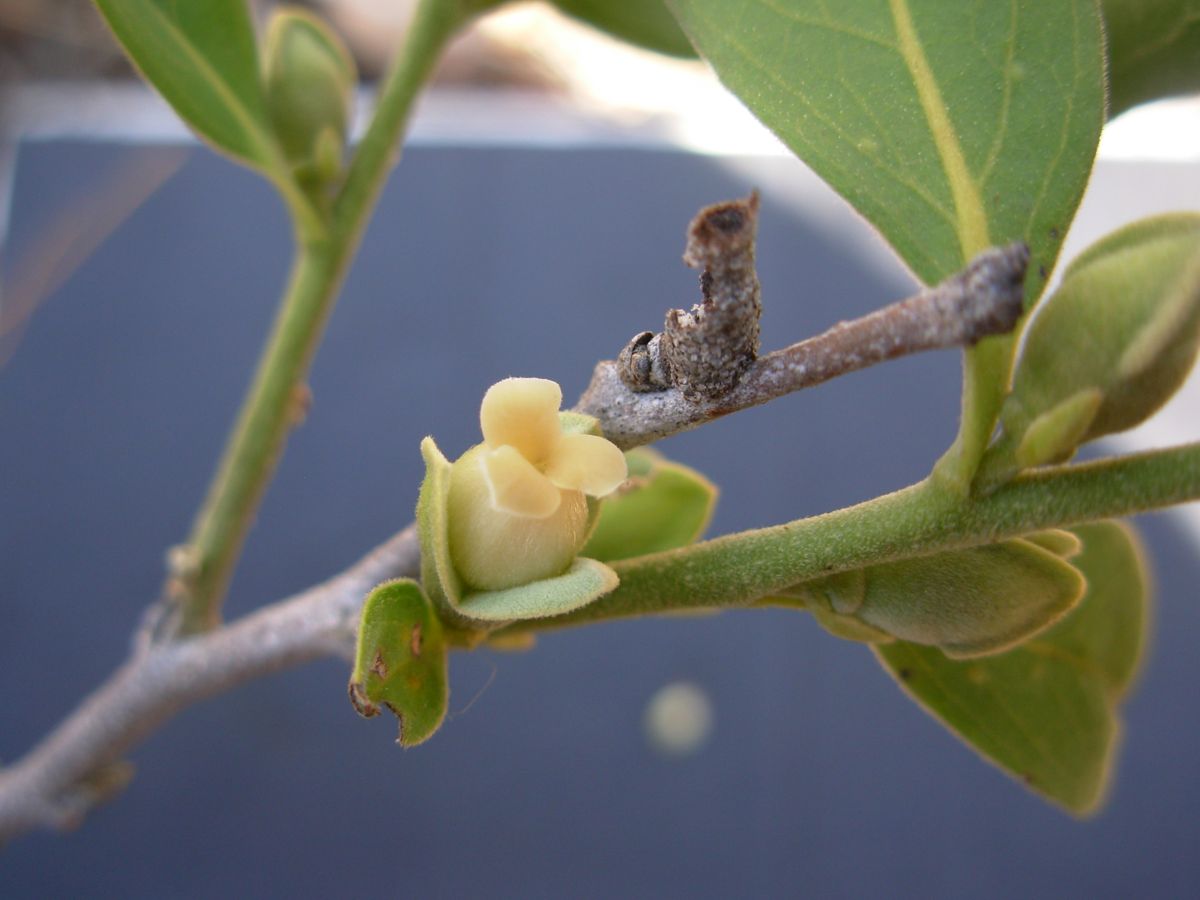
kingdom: Plantae
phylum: Tracheophyta
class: Magnoliopsida
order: Ericales
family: Ebenaceae
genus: Diospyros
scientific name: Diospyros salicifolia
